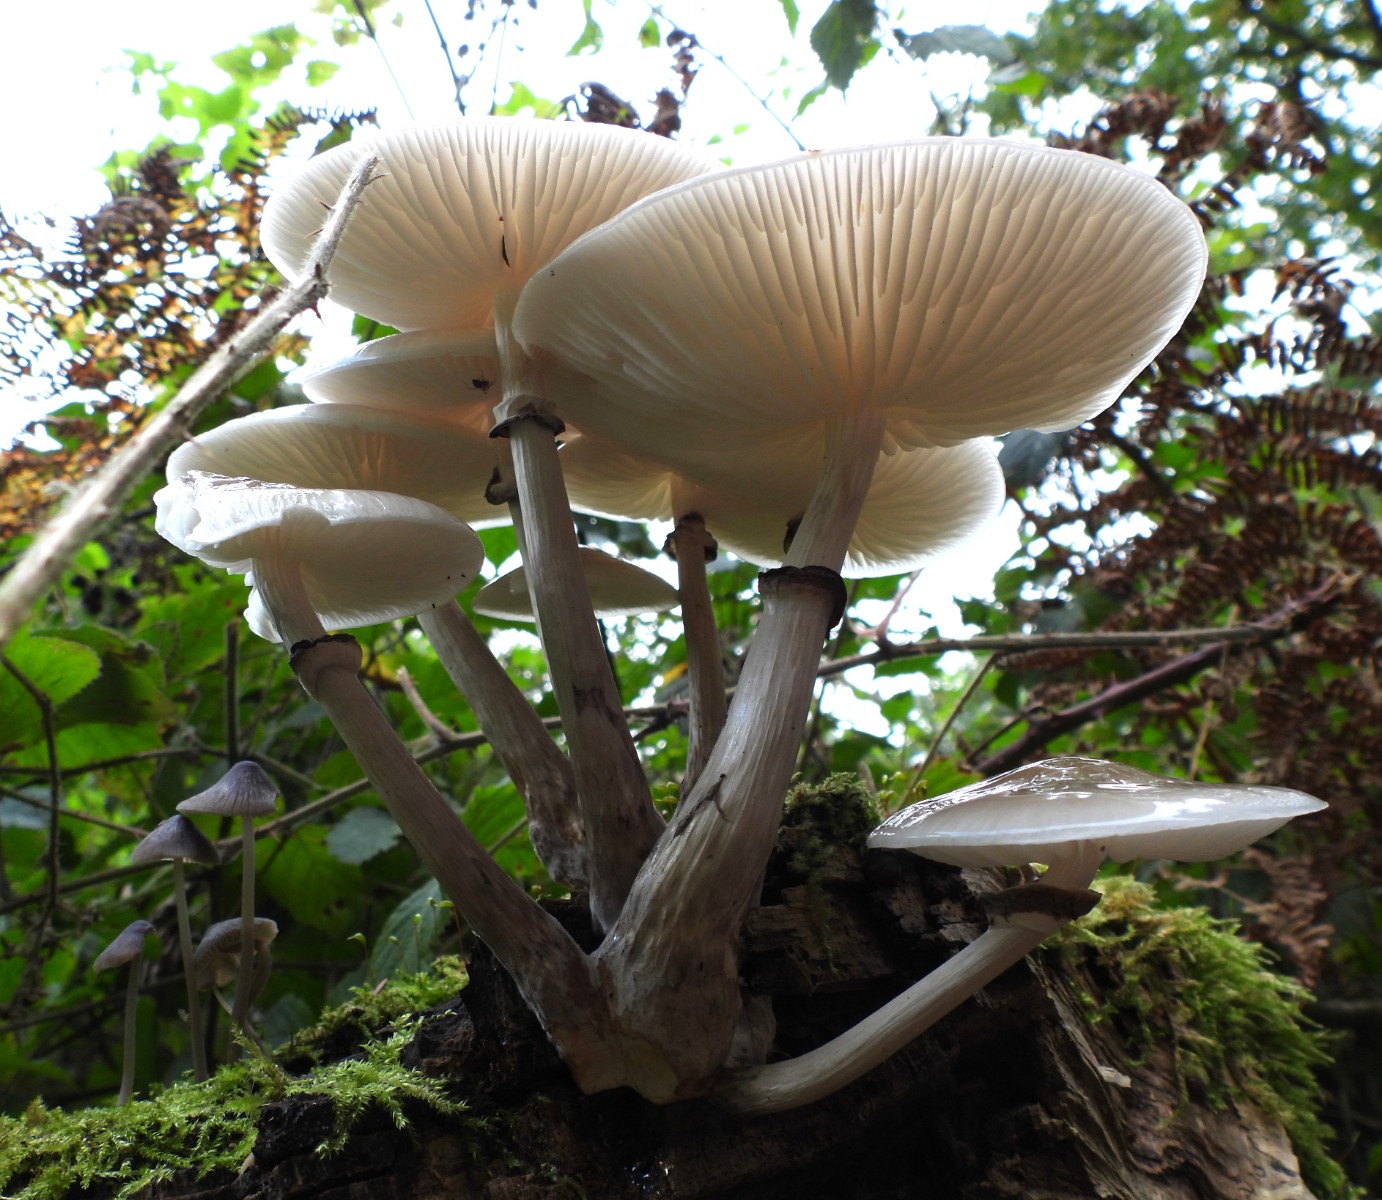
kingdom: Fungi
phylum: Basidiomycota
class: Agaricomycetes
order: Agaricales
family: Physalacriaceae
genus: Mucidula
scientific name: Mucidula mucida
